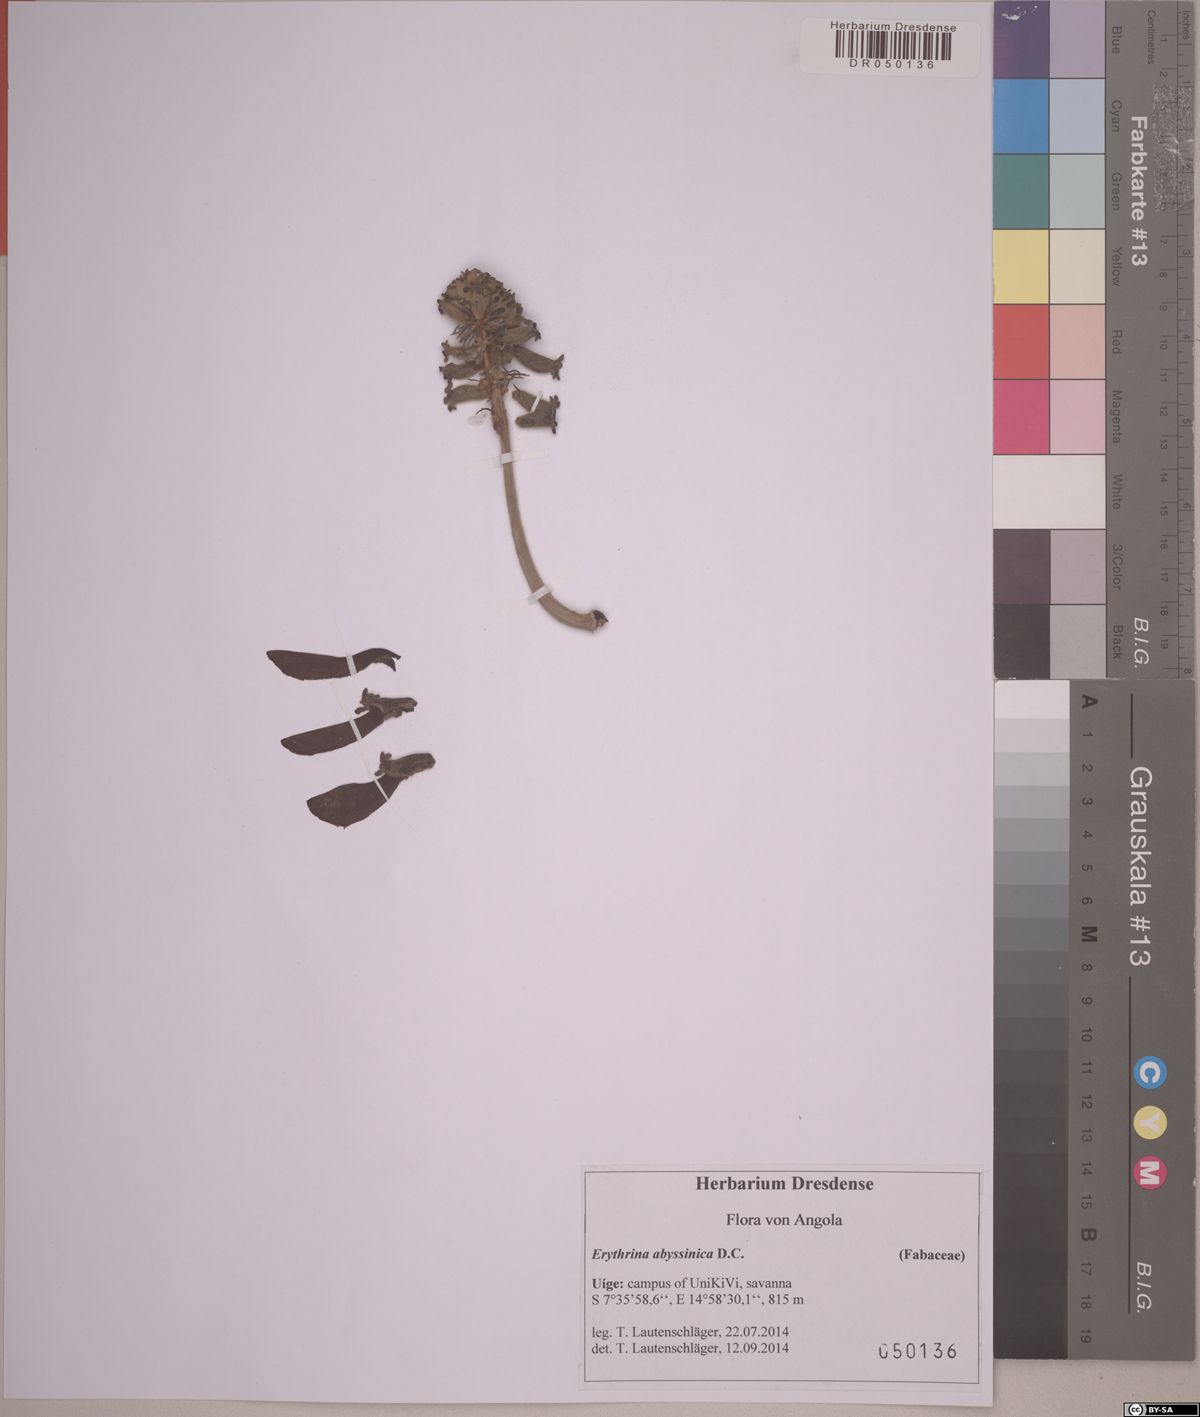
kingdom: Plantae
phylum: Tracheophyta
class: Magnoliopsida
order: Fabales
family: Fabaceae
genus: Erythrina
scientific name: Erythrina abyssinica
